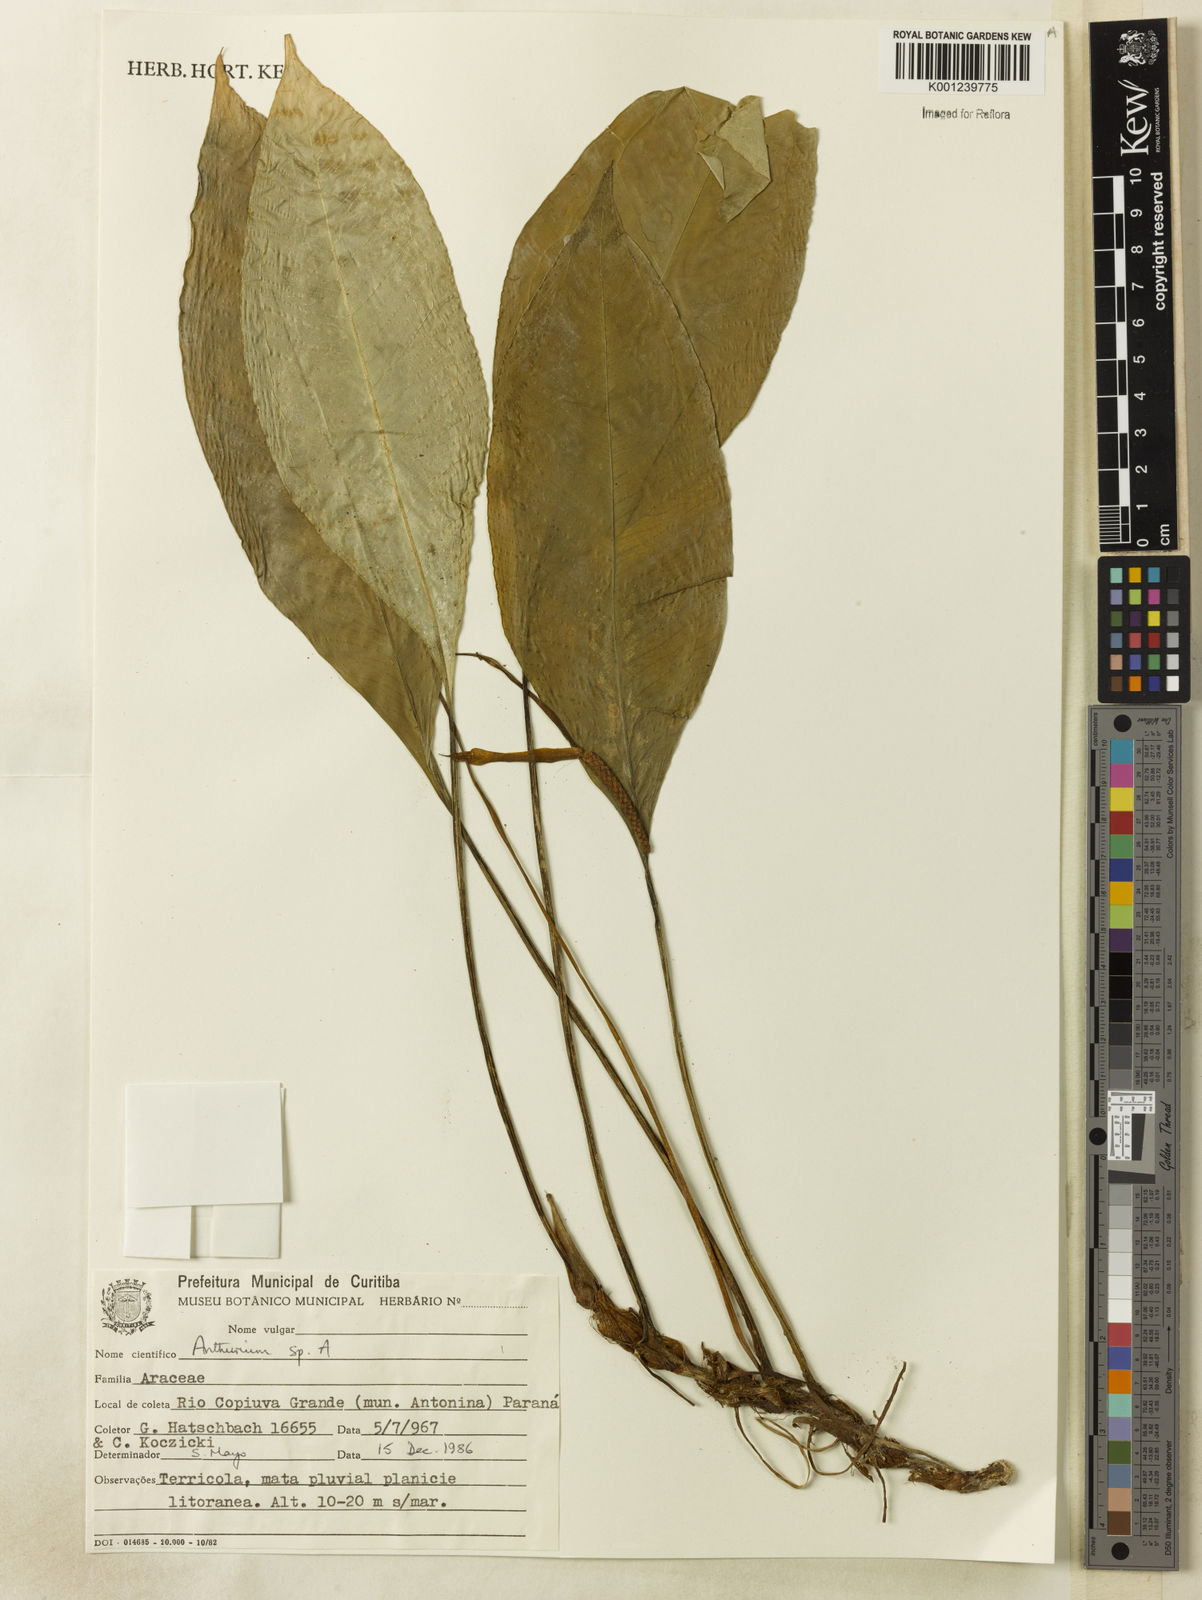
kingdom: Plantae
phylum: Tracheophyta
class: Liliopsida
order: Alismatales
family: Araceae
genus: Anthurium
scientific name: Anthurium
